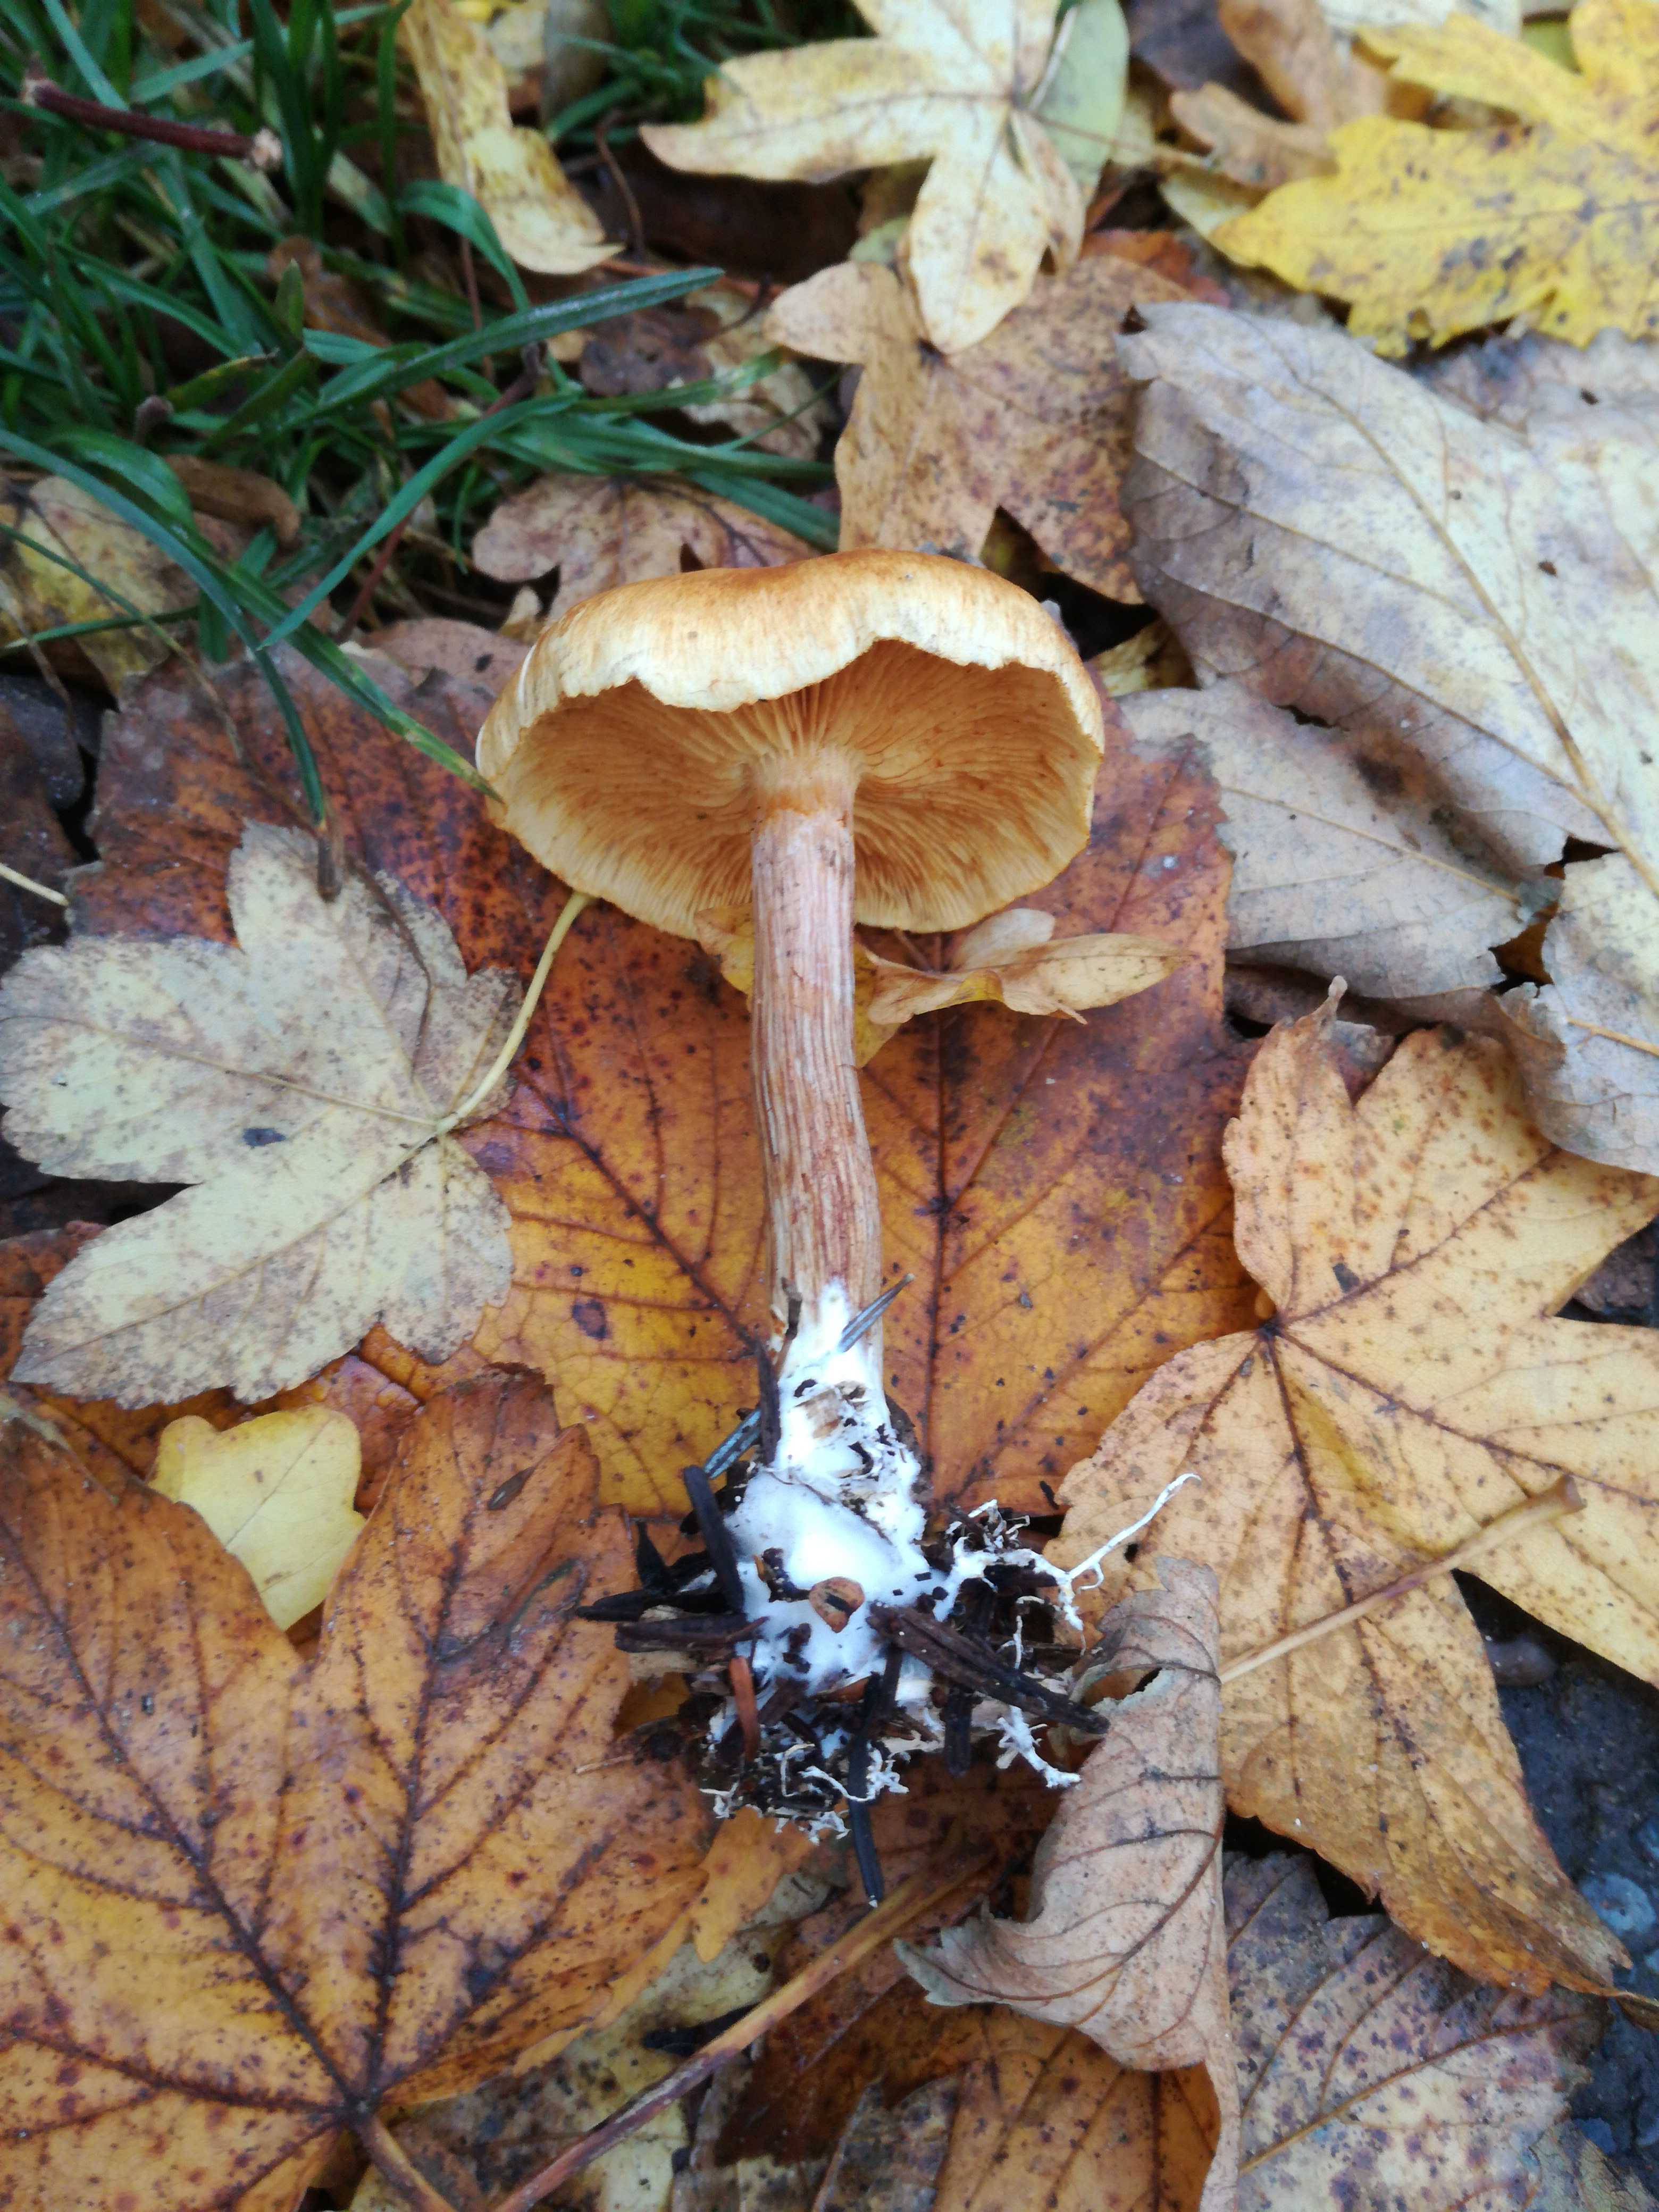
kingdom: Fungi
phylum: Basidiomycota
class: Agaricomycetes
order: Agaricales
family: Hymenogastraceae
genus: Gymnopilus
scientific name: Gymnopilus penetrans
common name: plettet flammehat
